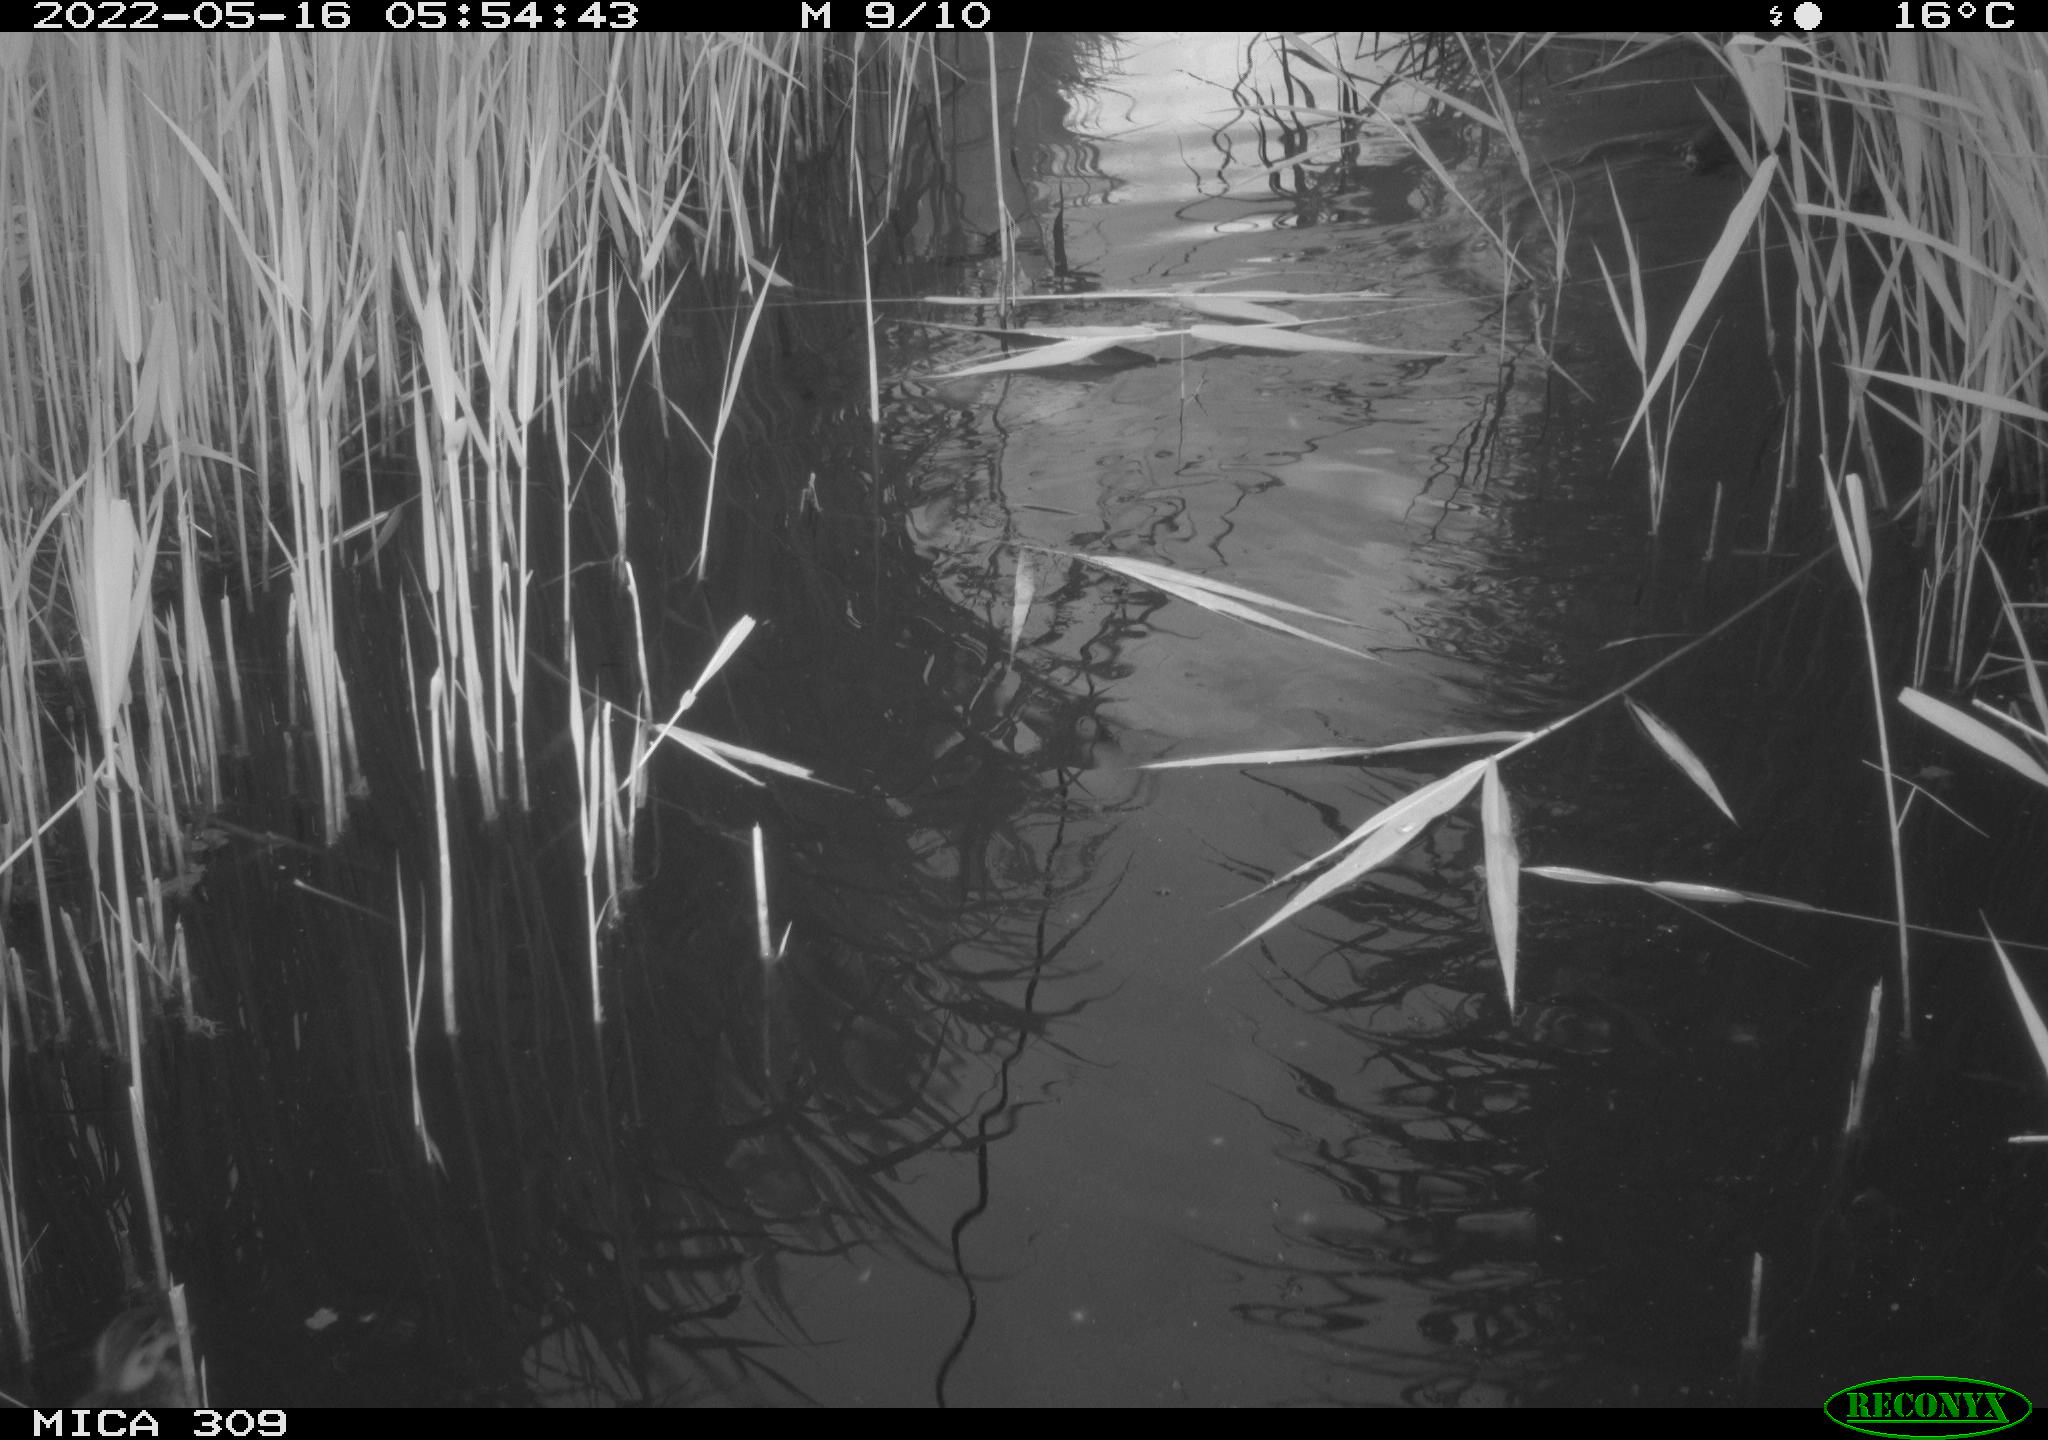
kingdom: Animalia
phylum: Chordata
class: Aves
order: Anseriformes
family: Anatidae
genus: Anas
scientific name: Anas platyrhynchos
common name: Mallard
